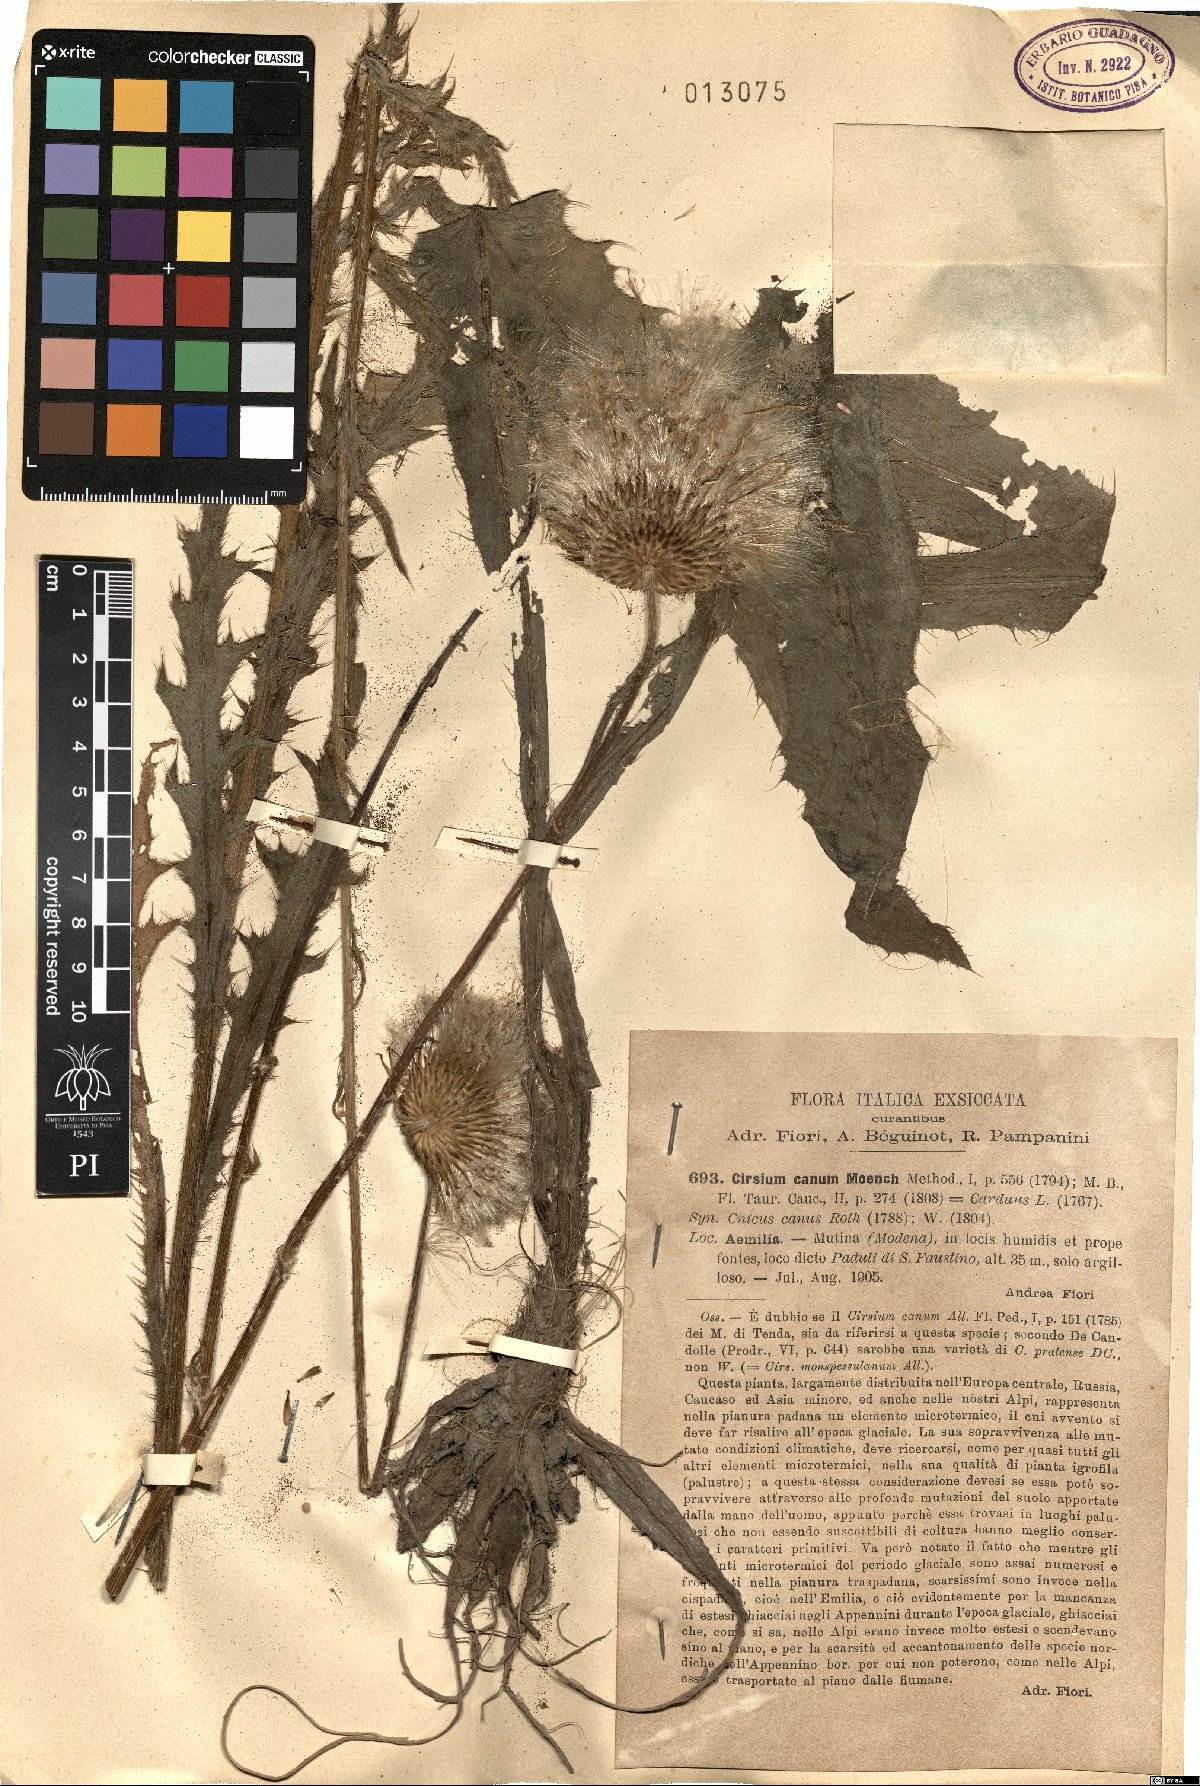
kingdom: Plantae
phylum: Tracheophyta
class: Magnoliopsida
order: Asterales
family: Asteraceae
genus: Cirsium
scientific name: Cirsium canum
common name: Queen anne's thistle
